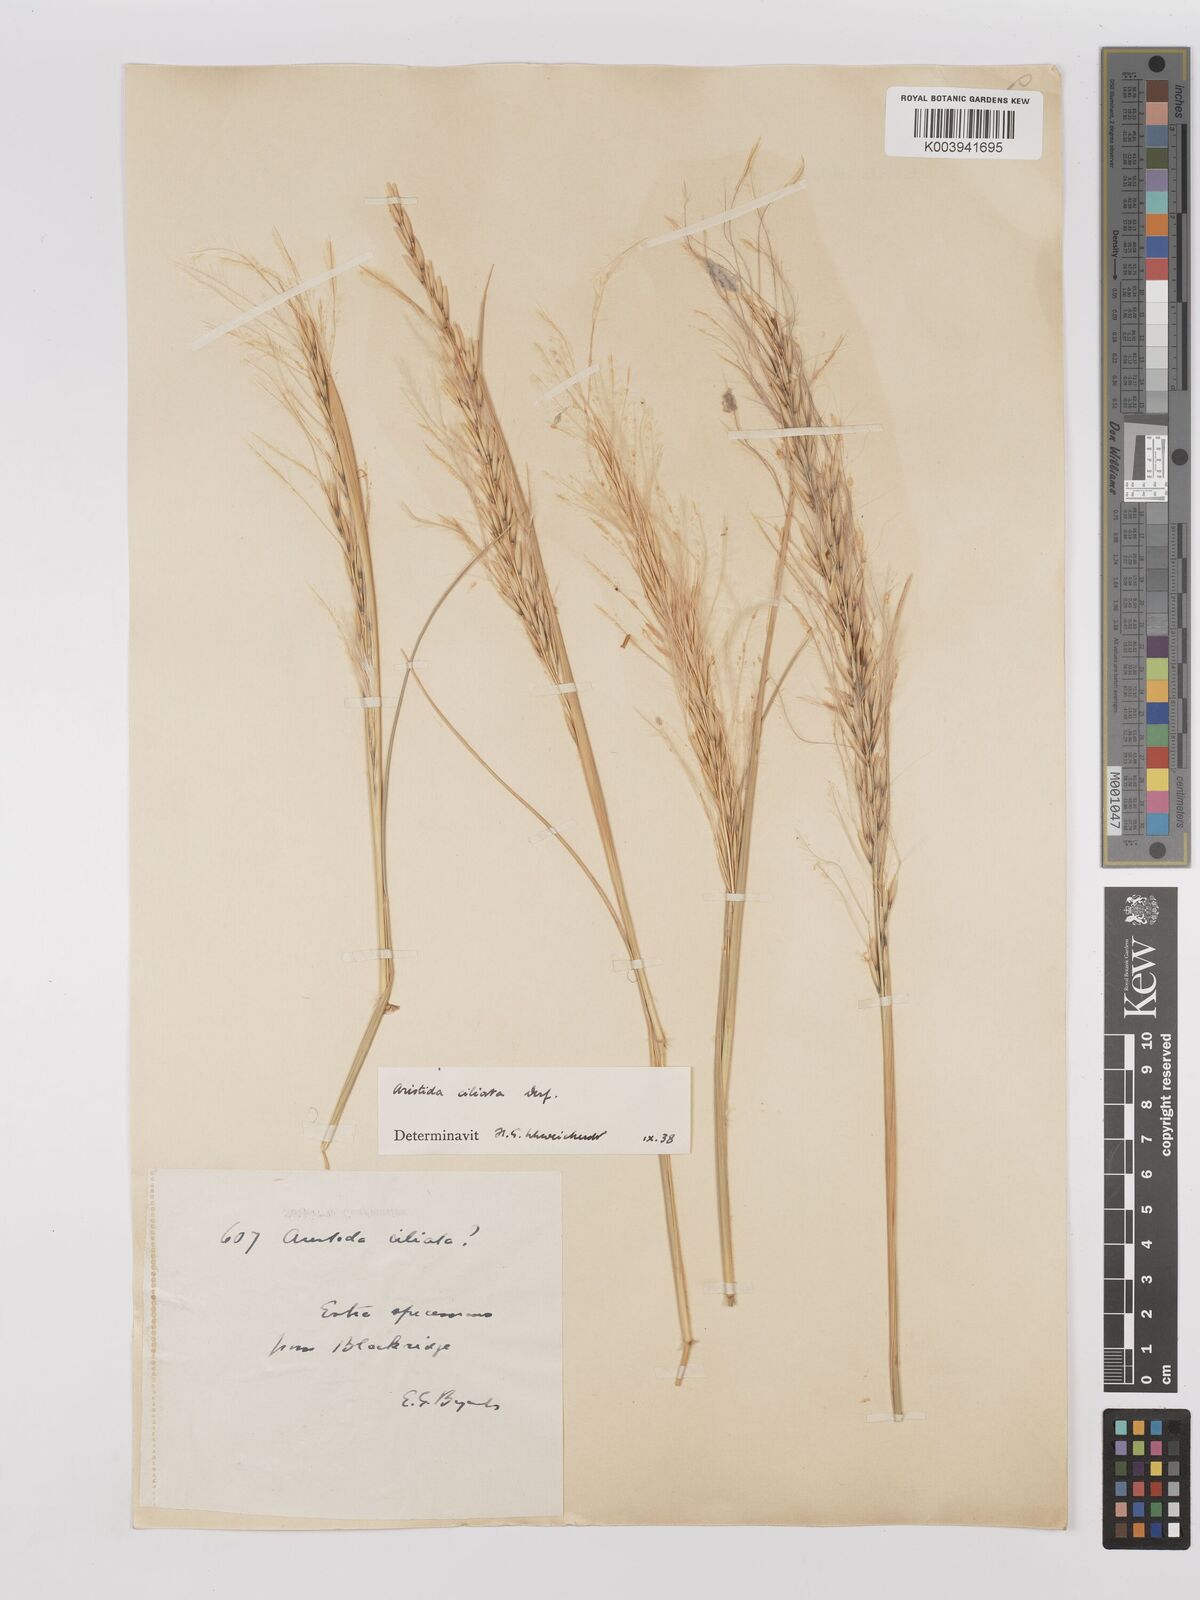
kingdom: Plantae
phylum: Tracheophyta
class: Liliopsida
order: Poales
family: Poaceae
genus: Stipagrostis
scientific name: Stipagrostis ciliata
